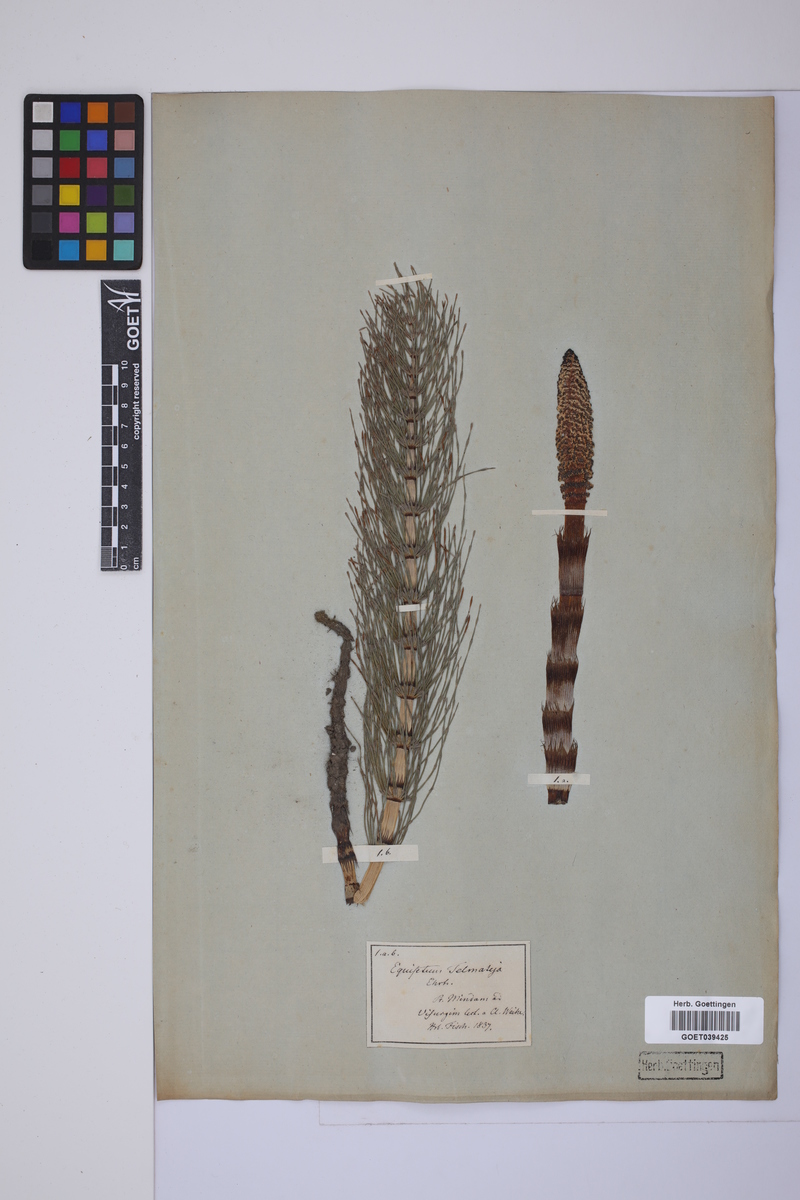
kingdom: Plantae
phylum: Tracheophyta
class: Polypodiopsida
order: Equisetales
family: Equisetaceae
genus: Equisetum
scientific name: Equisetum telmateia
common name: Great horsetail
